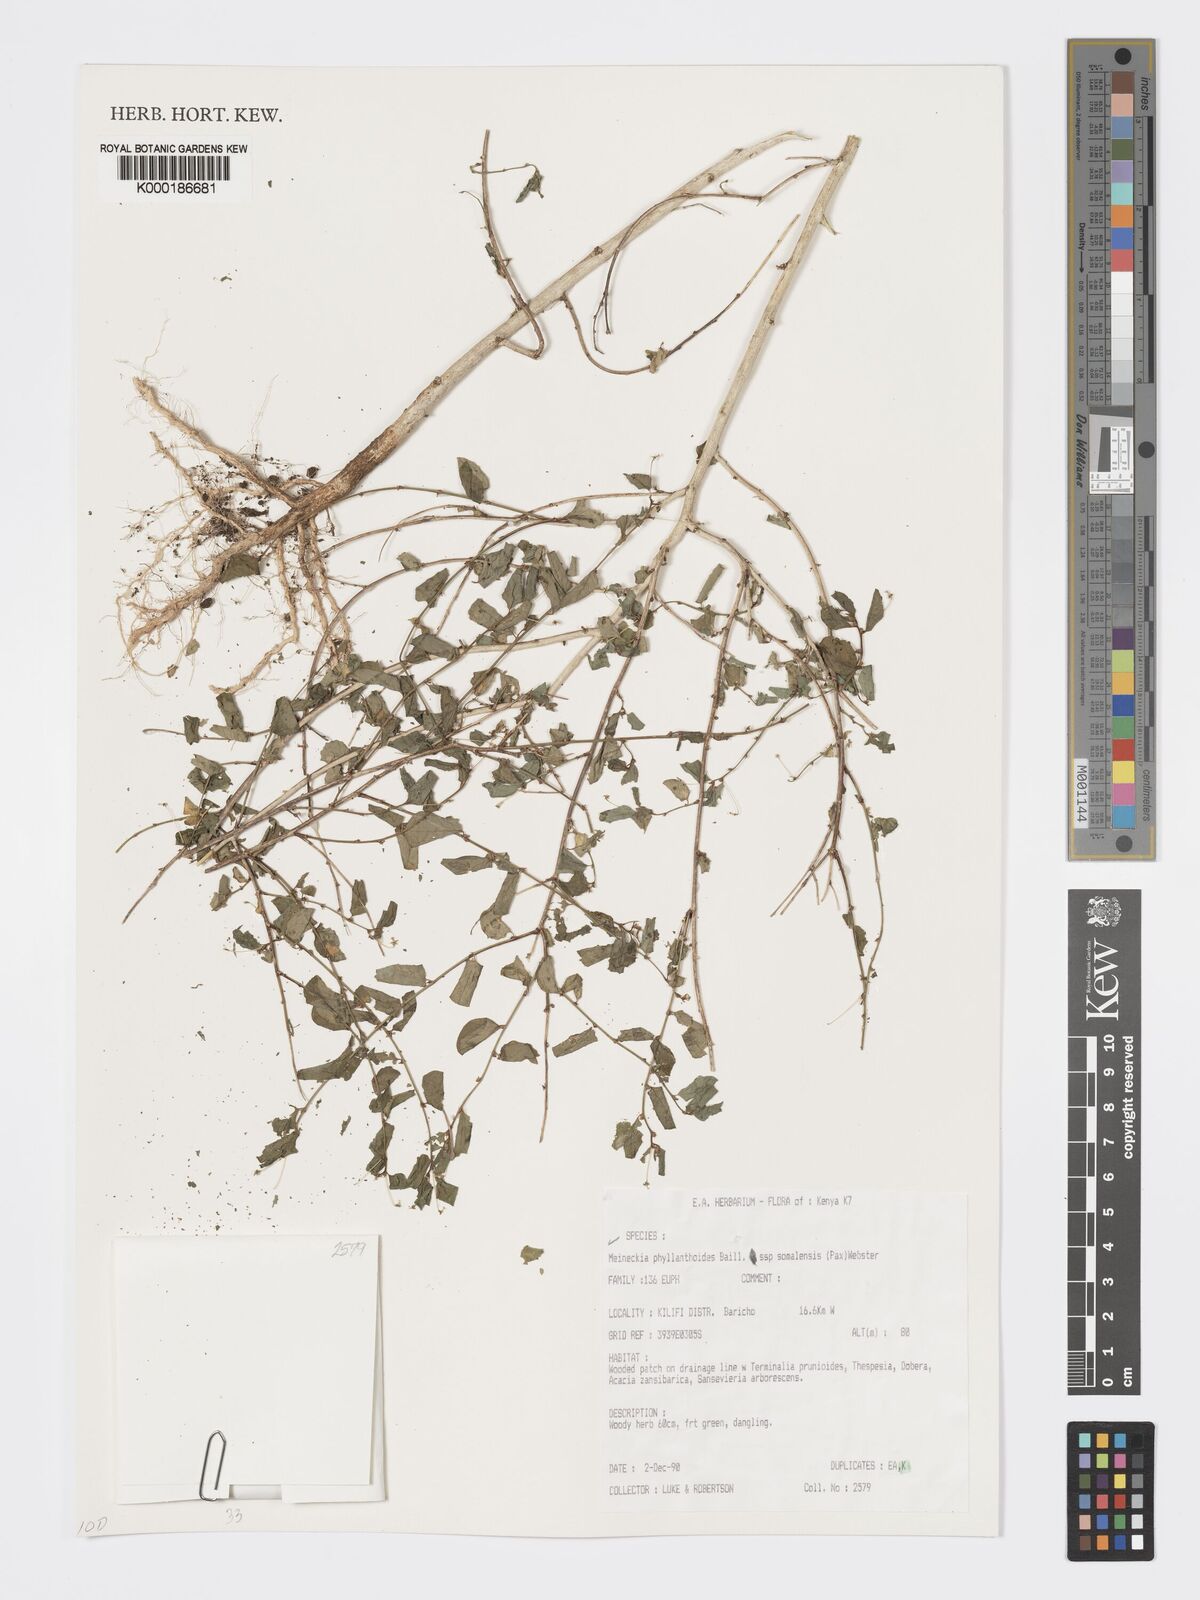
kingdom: Plantae
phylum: Tracheophyta
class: Magnoliopsida
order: Malpighiales
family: Phyllanthaceae
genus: Meineckia
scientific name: Meineckia phyllanthoides
